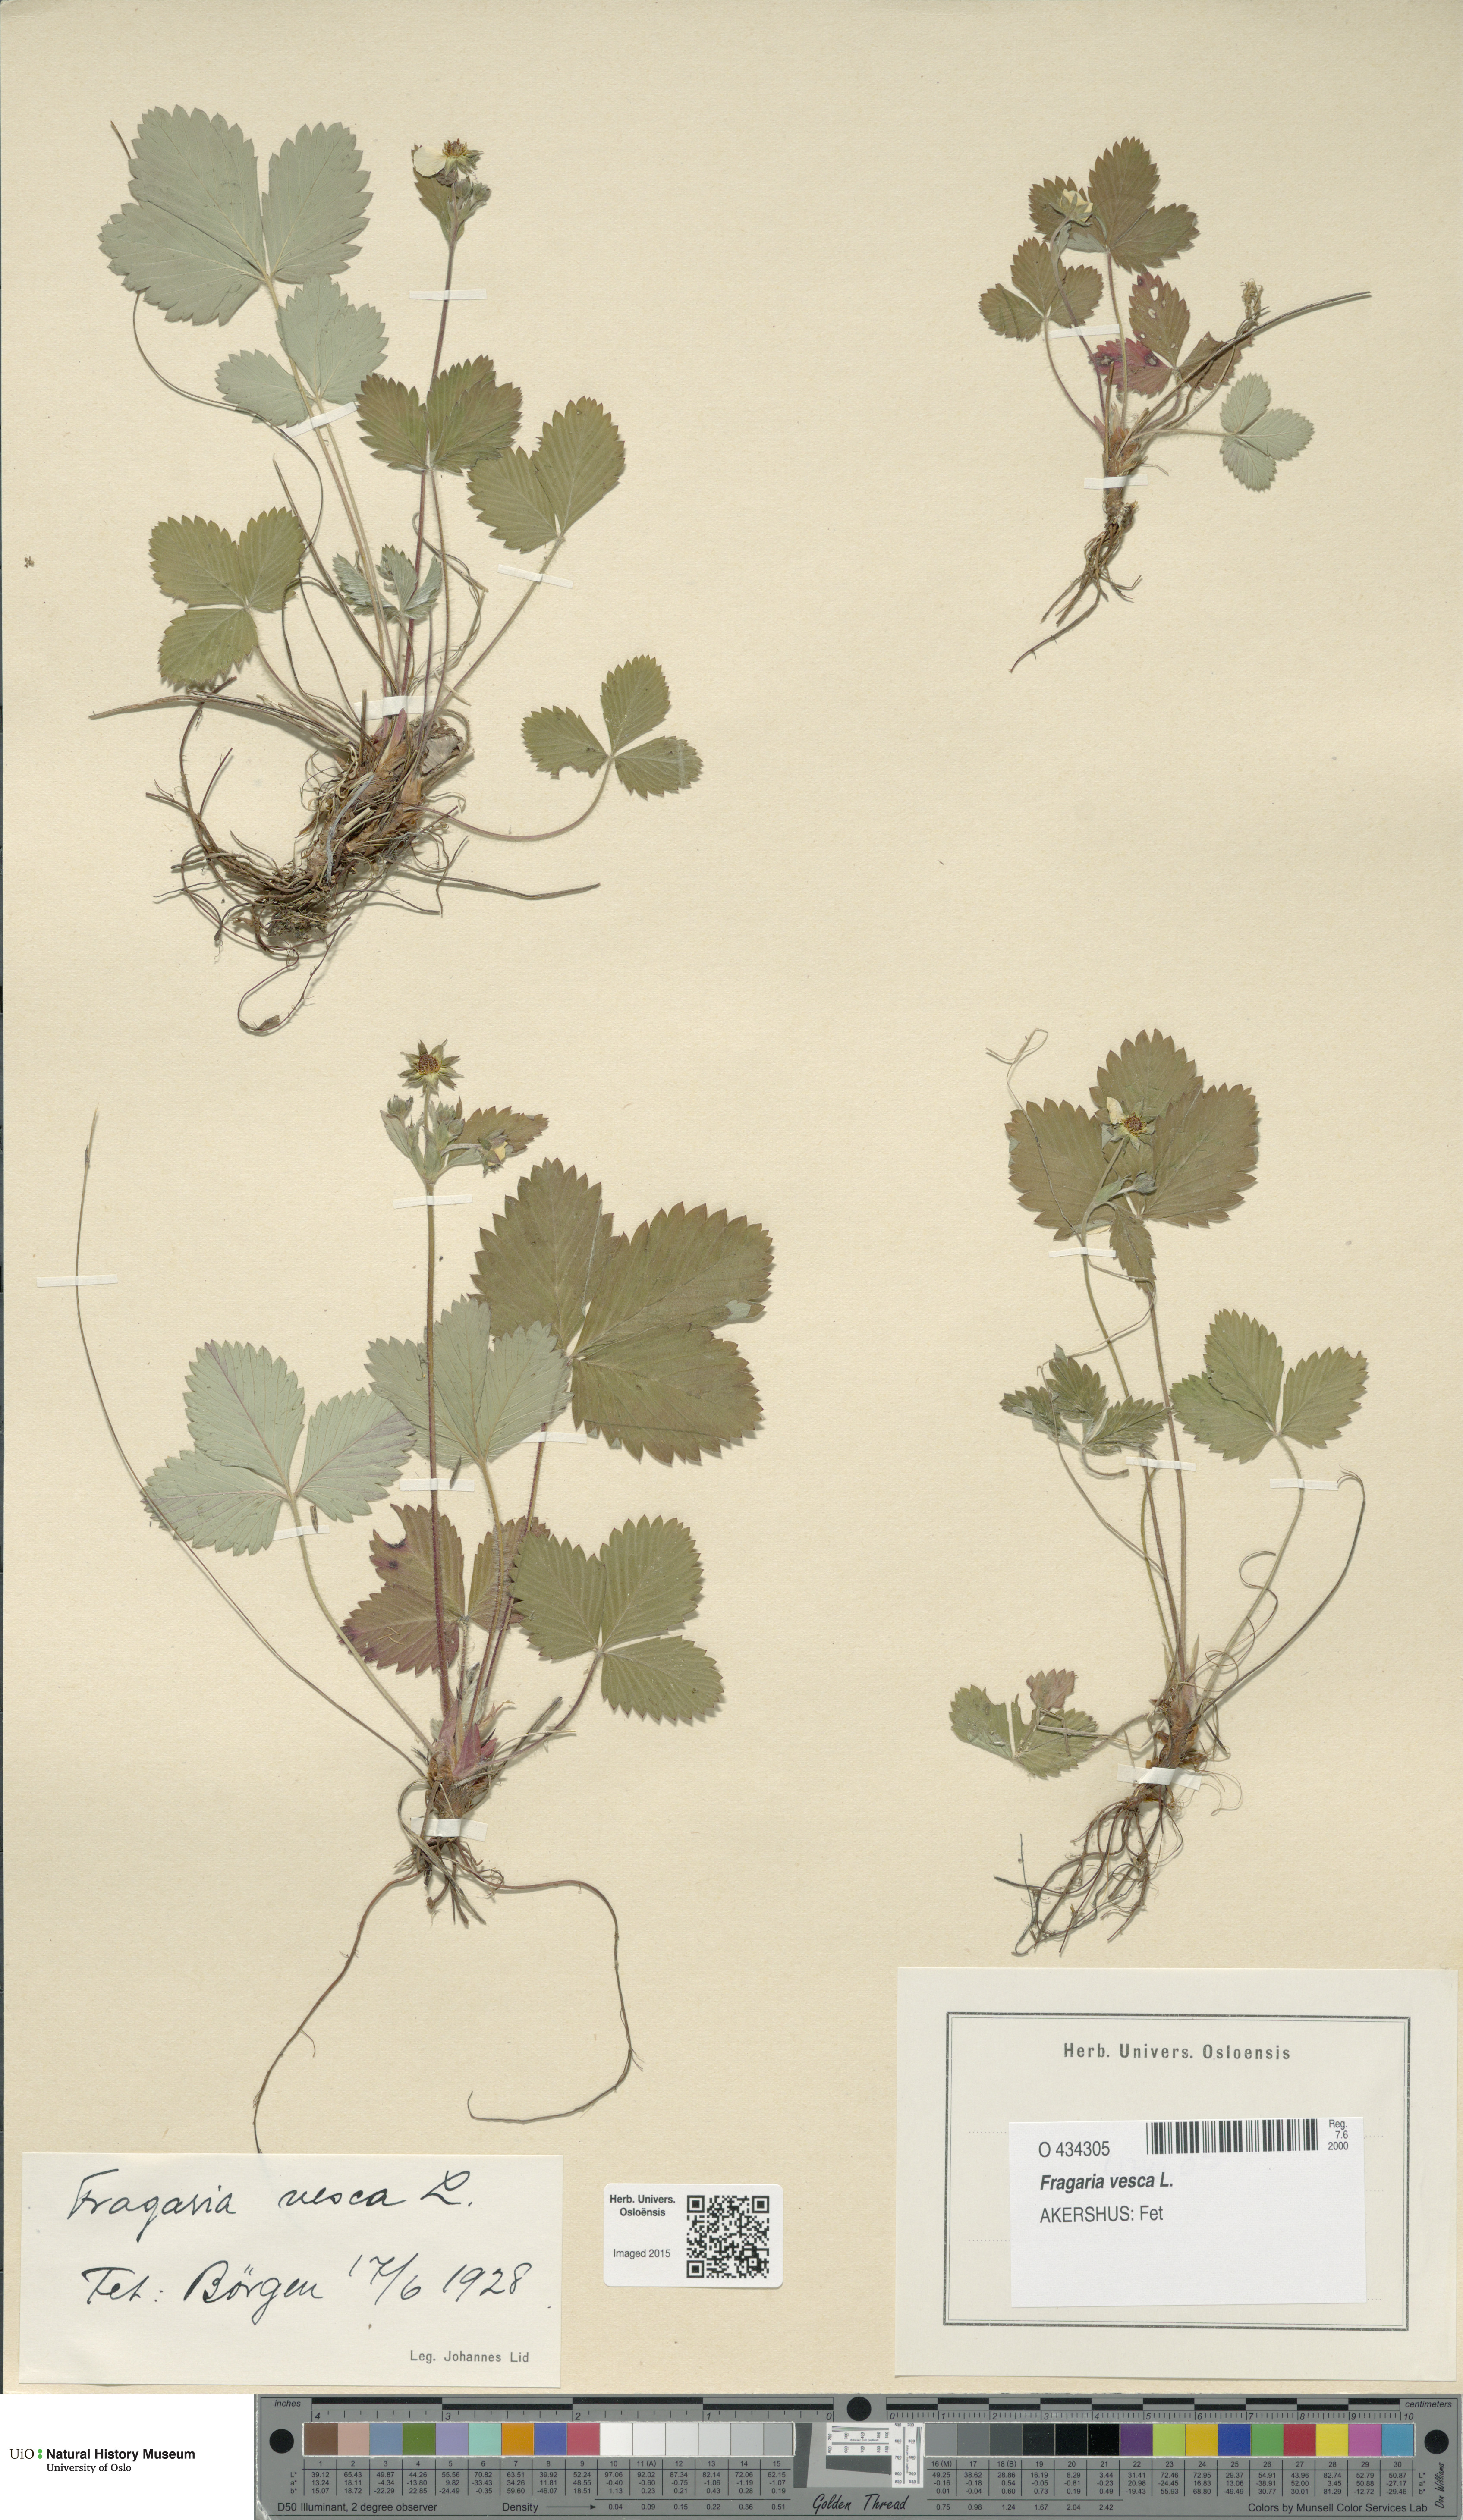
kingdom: Plantae
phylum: Tracheophyta
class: Magnoliopsida
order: Rosales
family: Rosaceae
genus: Fragaria
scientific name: Fragaria vesca
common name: Wild strawberry
